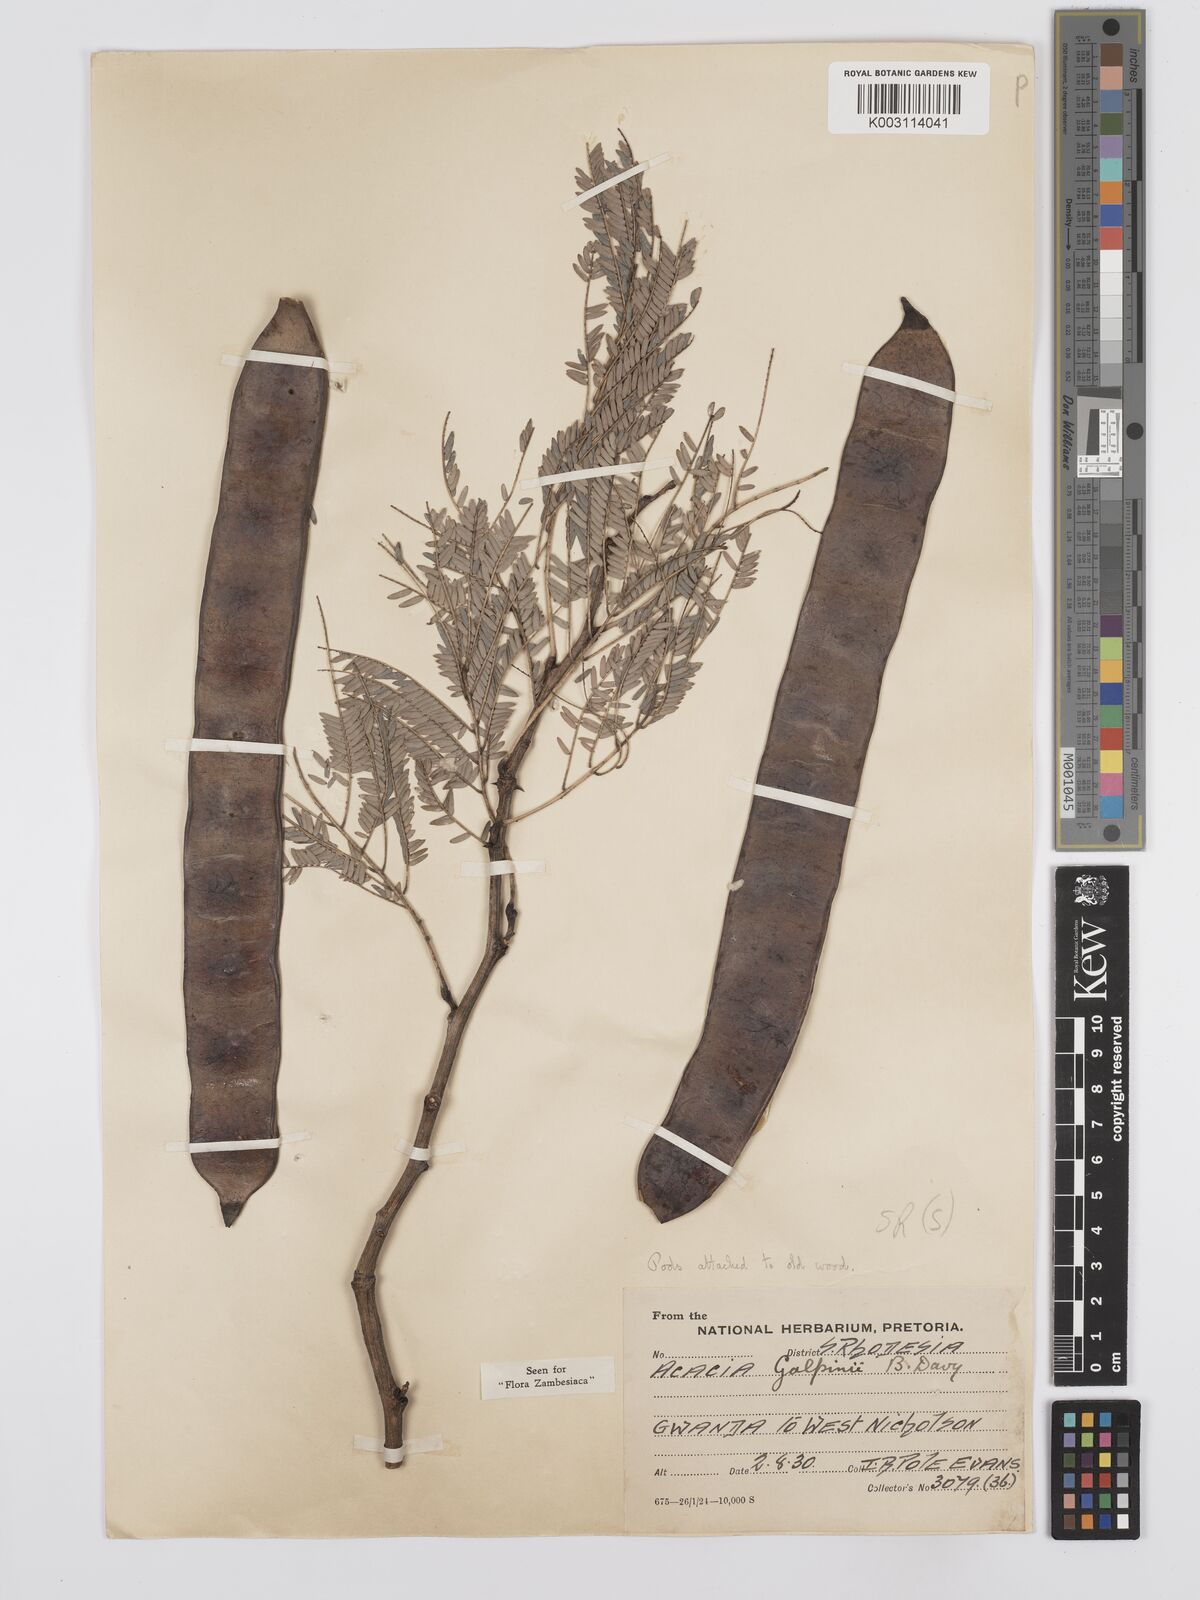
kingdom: Plantae
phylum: Tracheophyta
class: Magnoliopsida
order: Fabales
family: Fabaceae
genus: Senegalia
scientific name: Senegalia galpinii
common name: Monkey-thorn
